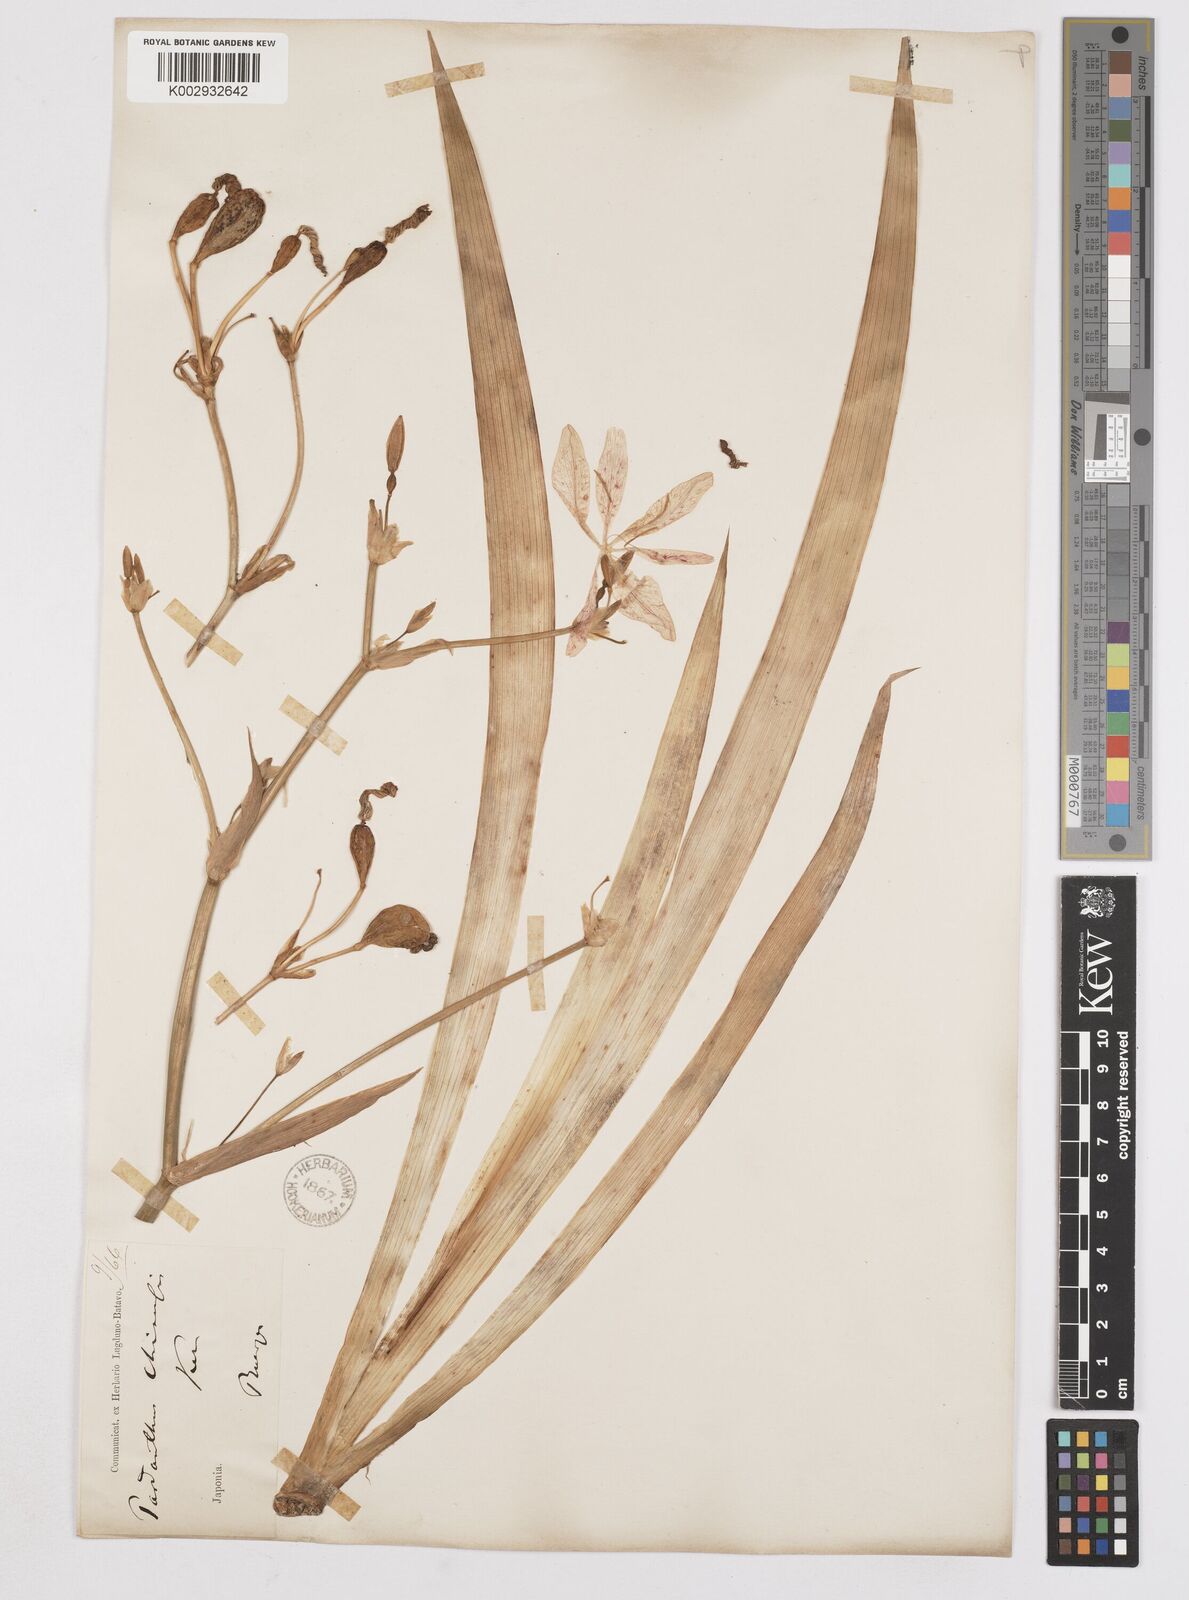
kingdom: Plantae
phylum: Tracheophyta
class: Liliopsida
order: Asparagales
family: Iridaceae
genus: Iris
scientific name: Iris
